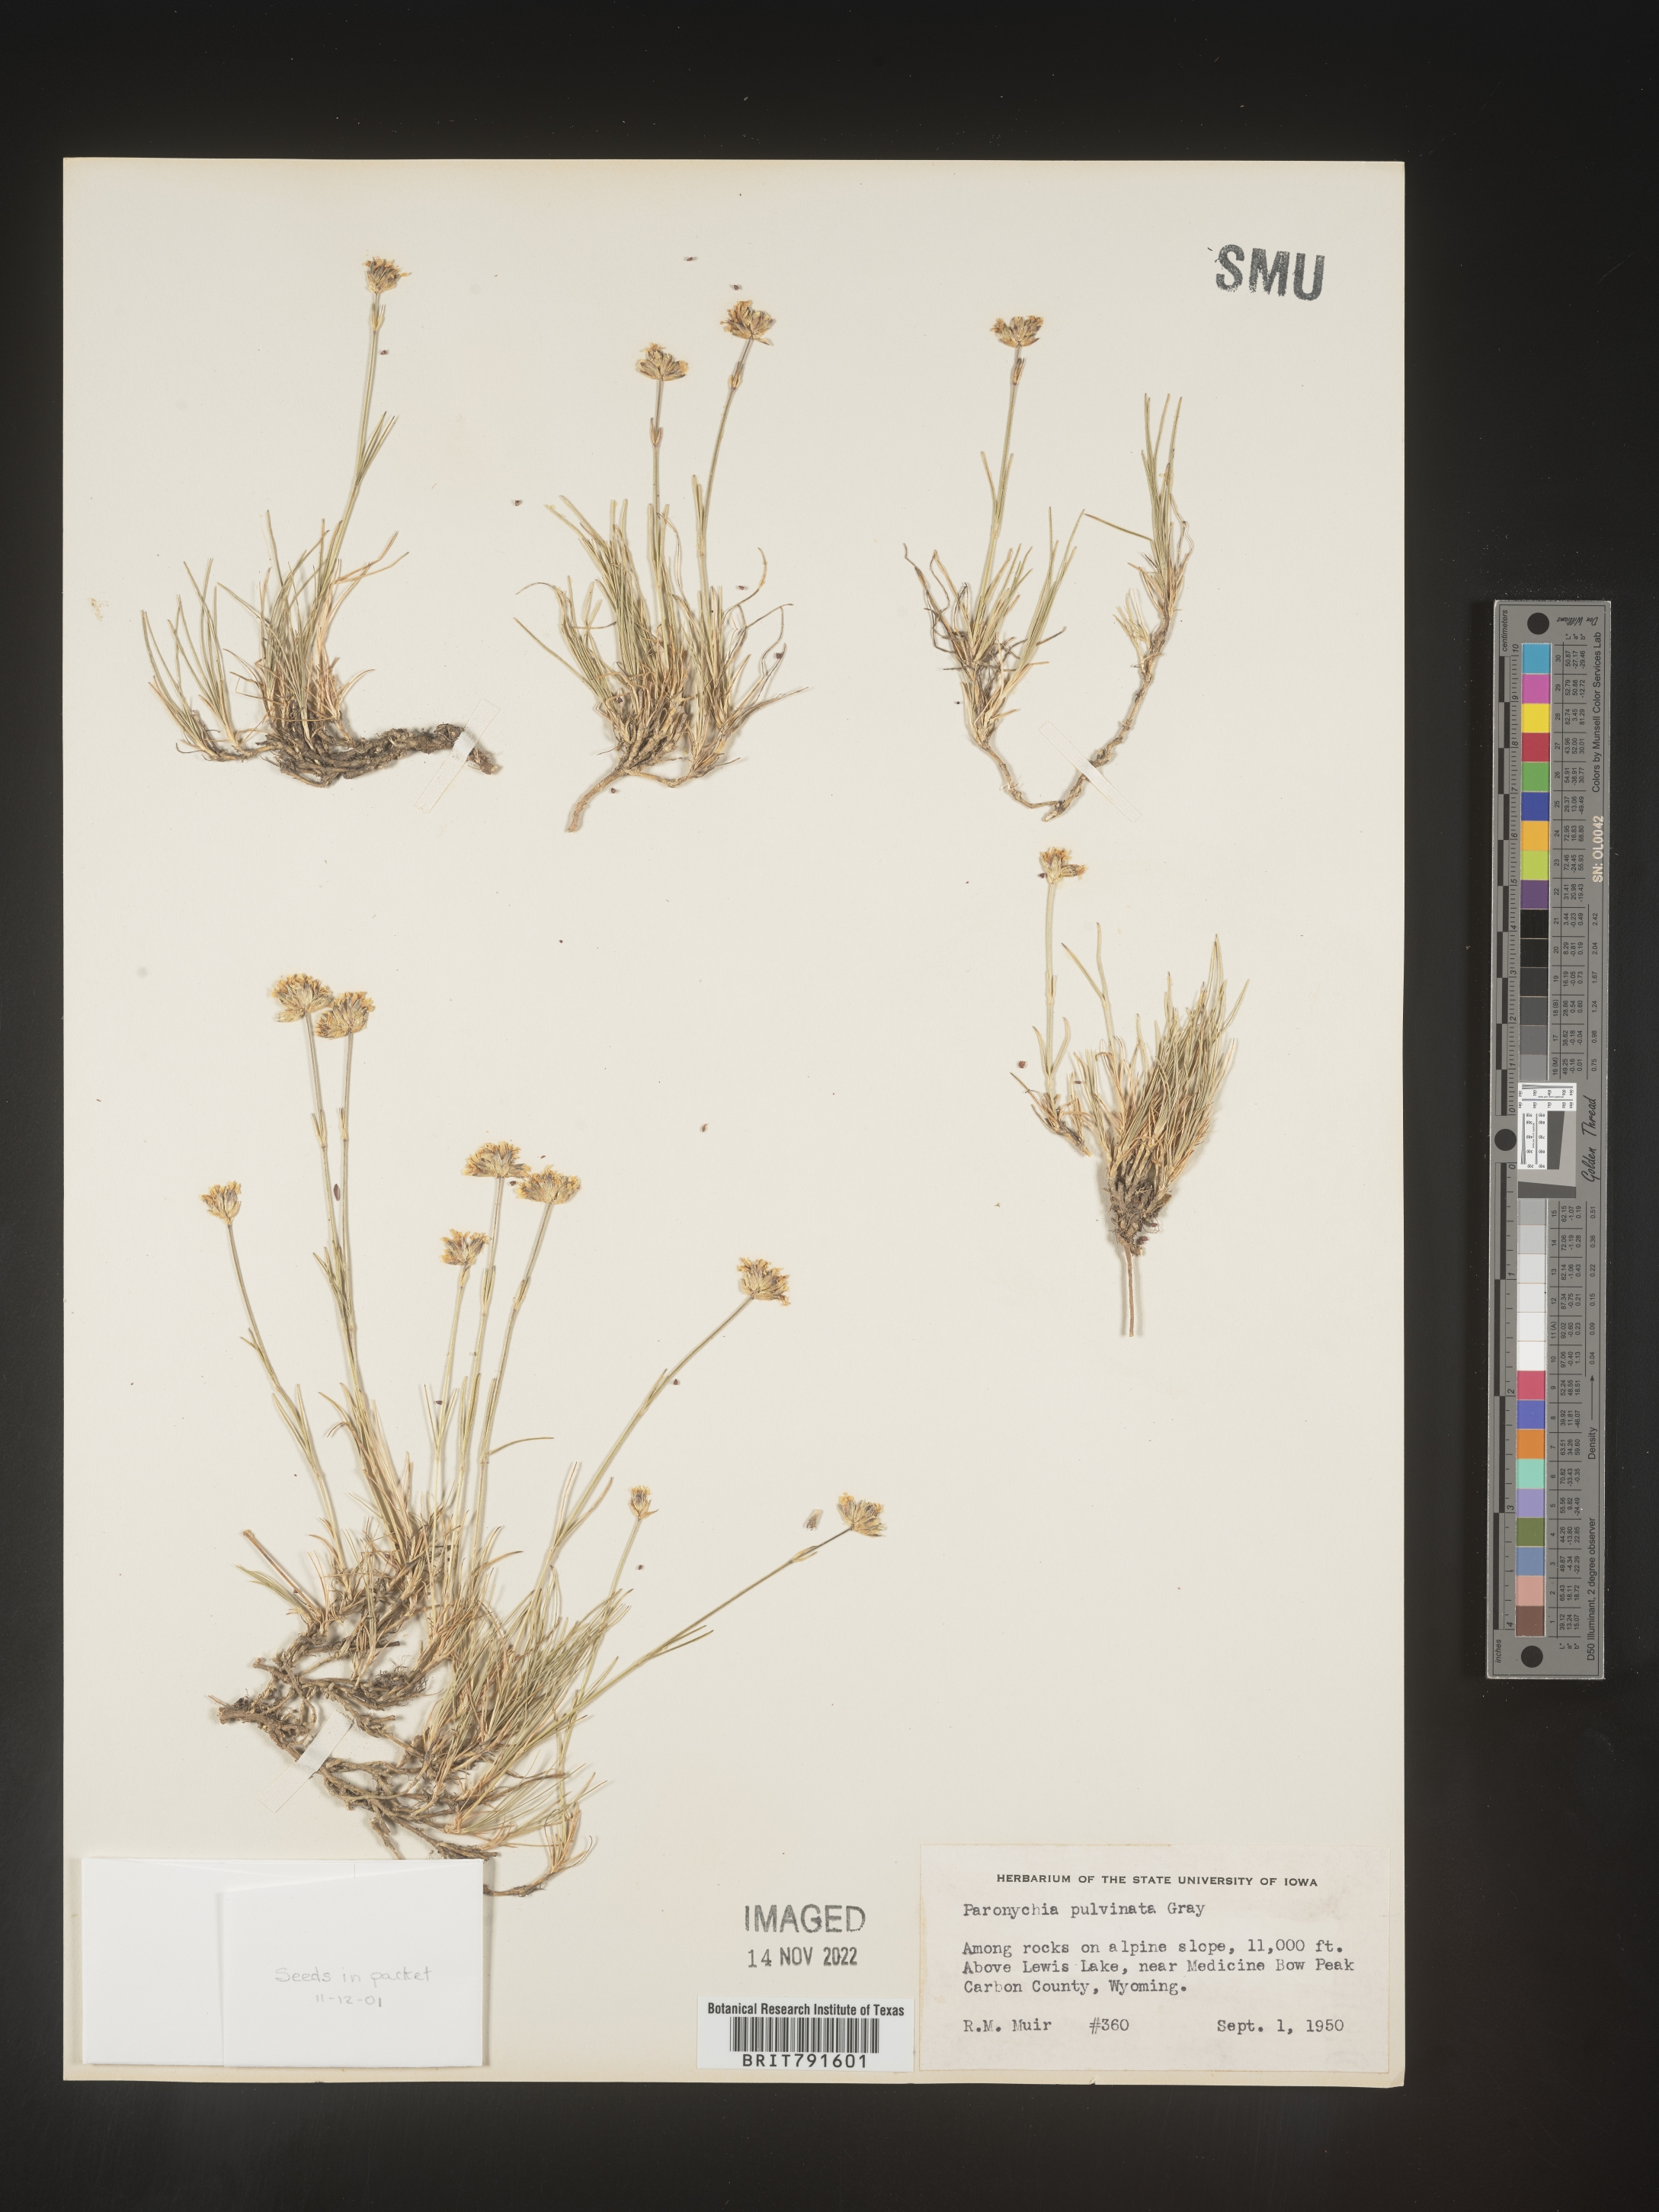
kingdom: Plantae
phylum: Tracheophyta
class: Magnoliopsida
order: Caryophyllales
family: Caryophyllaceae
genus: Paronychia
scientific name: Paronychia
